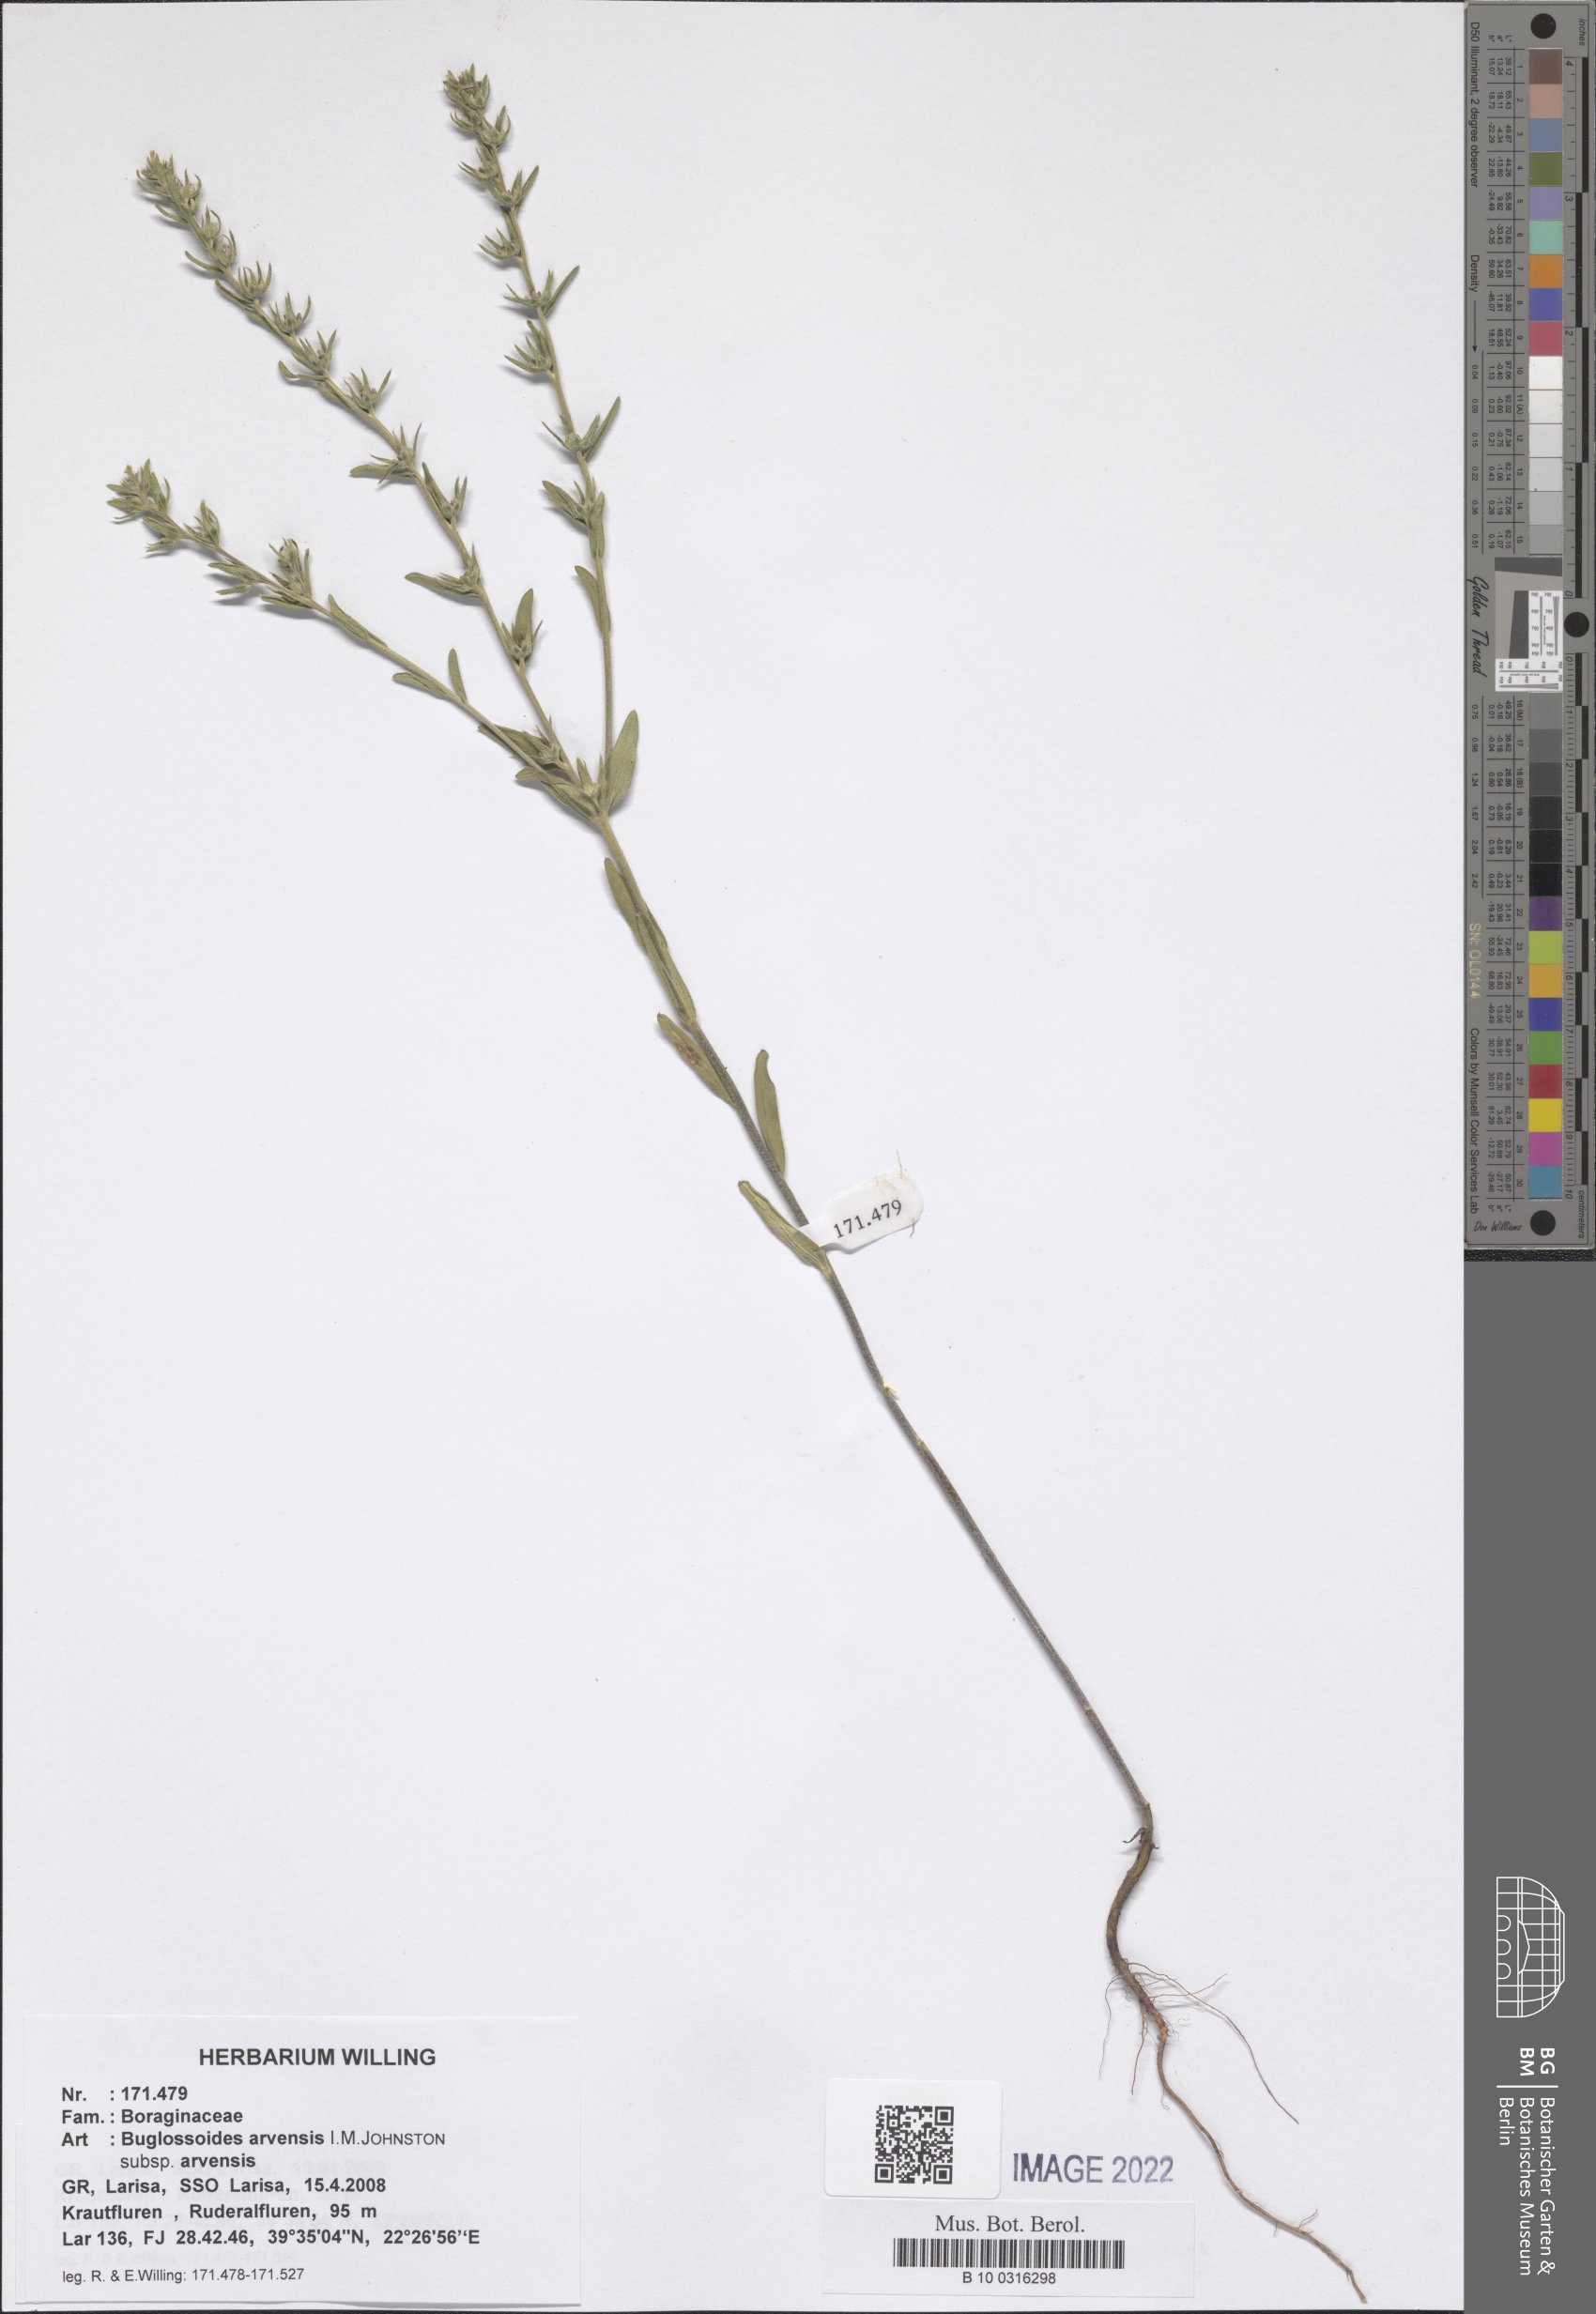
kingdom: Plantae
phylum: Tracheophyta
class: Magnoliopsida
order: Boraginales
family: Boraginaceae
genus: Buglossoides
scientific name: Buglossoides arvensis
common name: Corn gromwell
